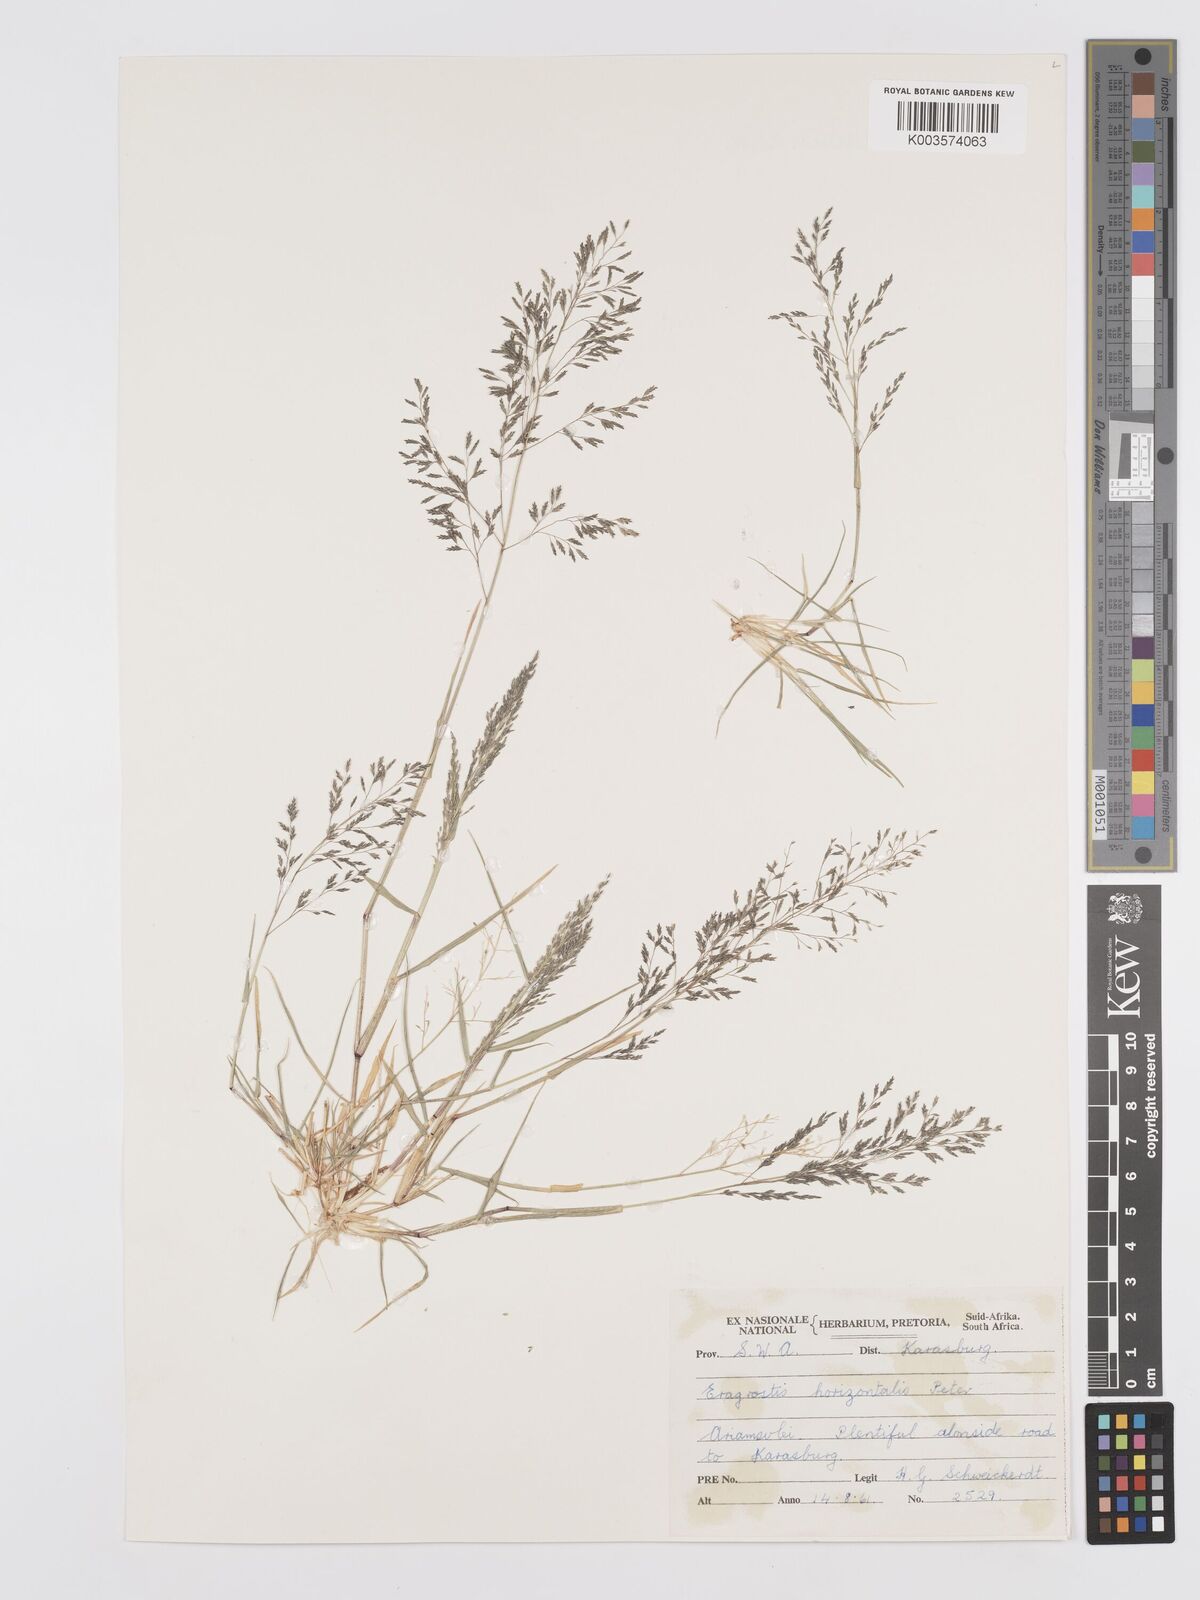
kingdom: Plantae
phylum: Tracheophyta
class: Liliopsida
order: Poales
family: Poaceae
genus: Eragrostis
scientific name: Eragrostis cylindriflora
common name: Cylinderflower lovegrass
